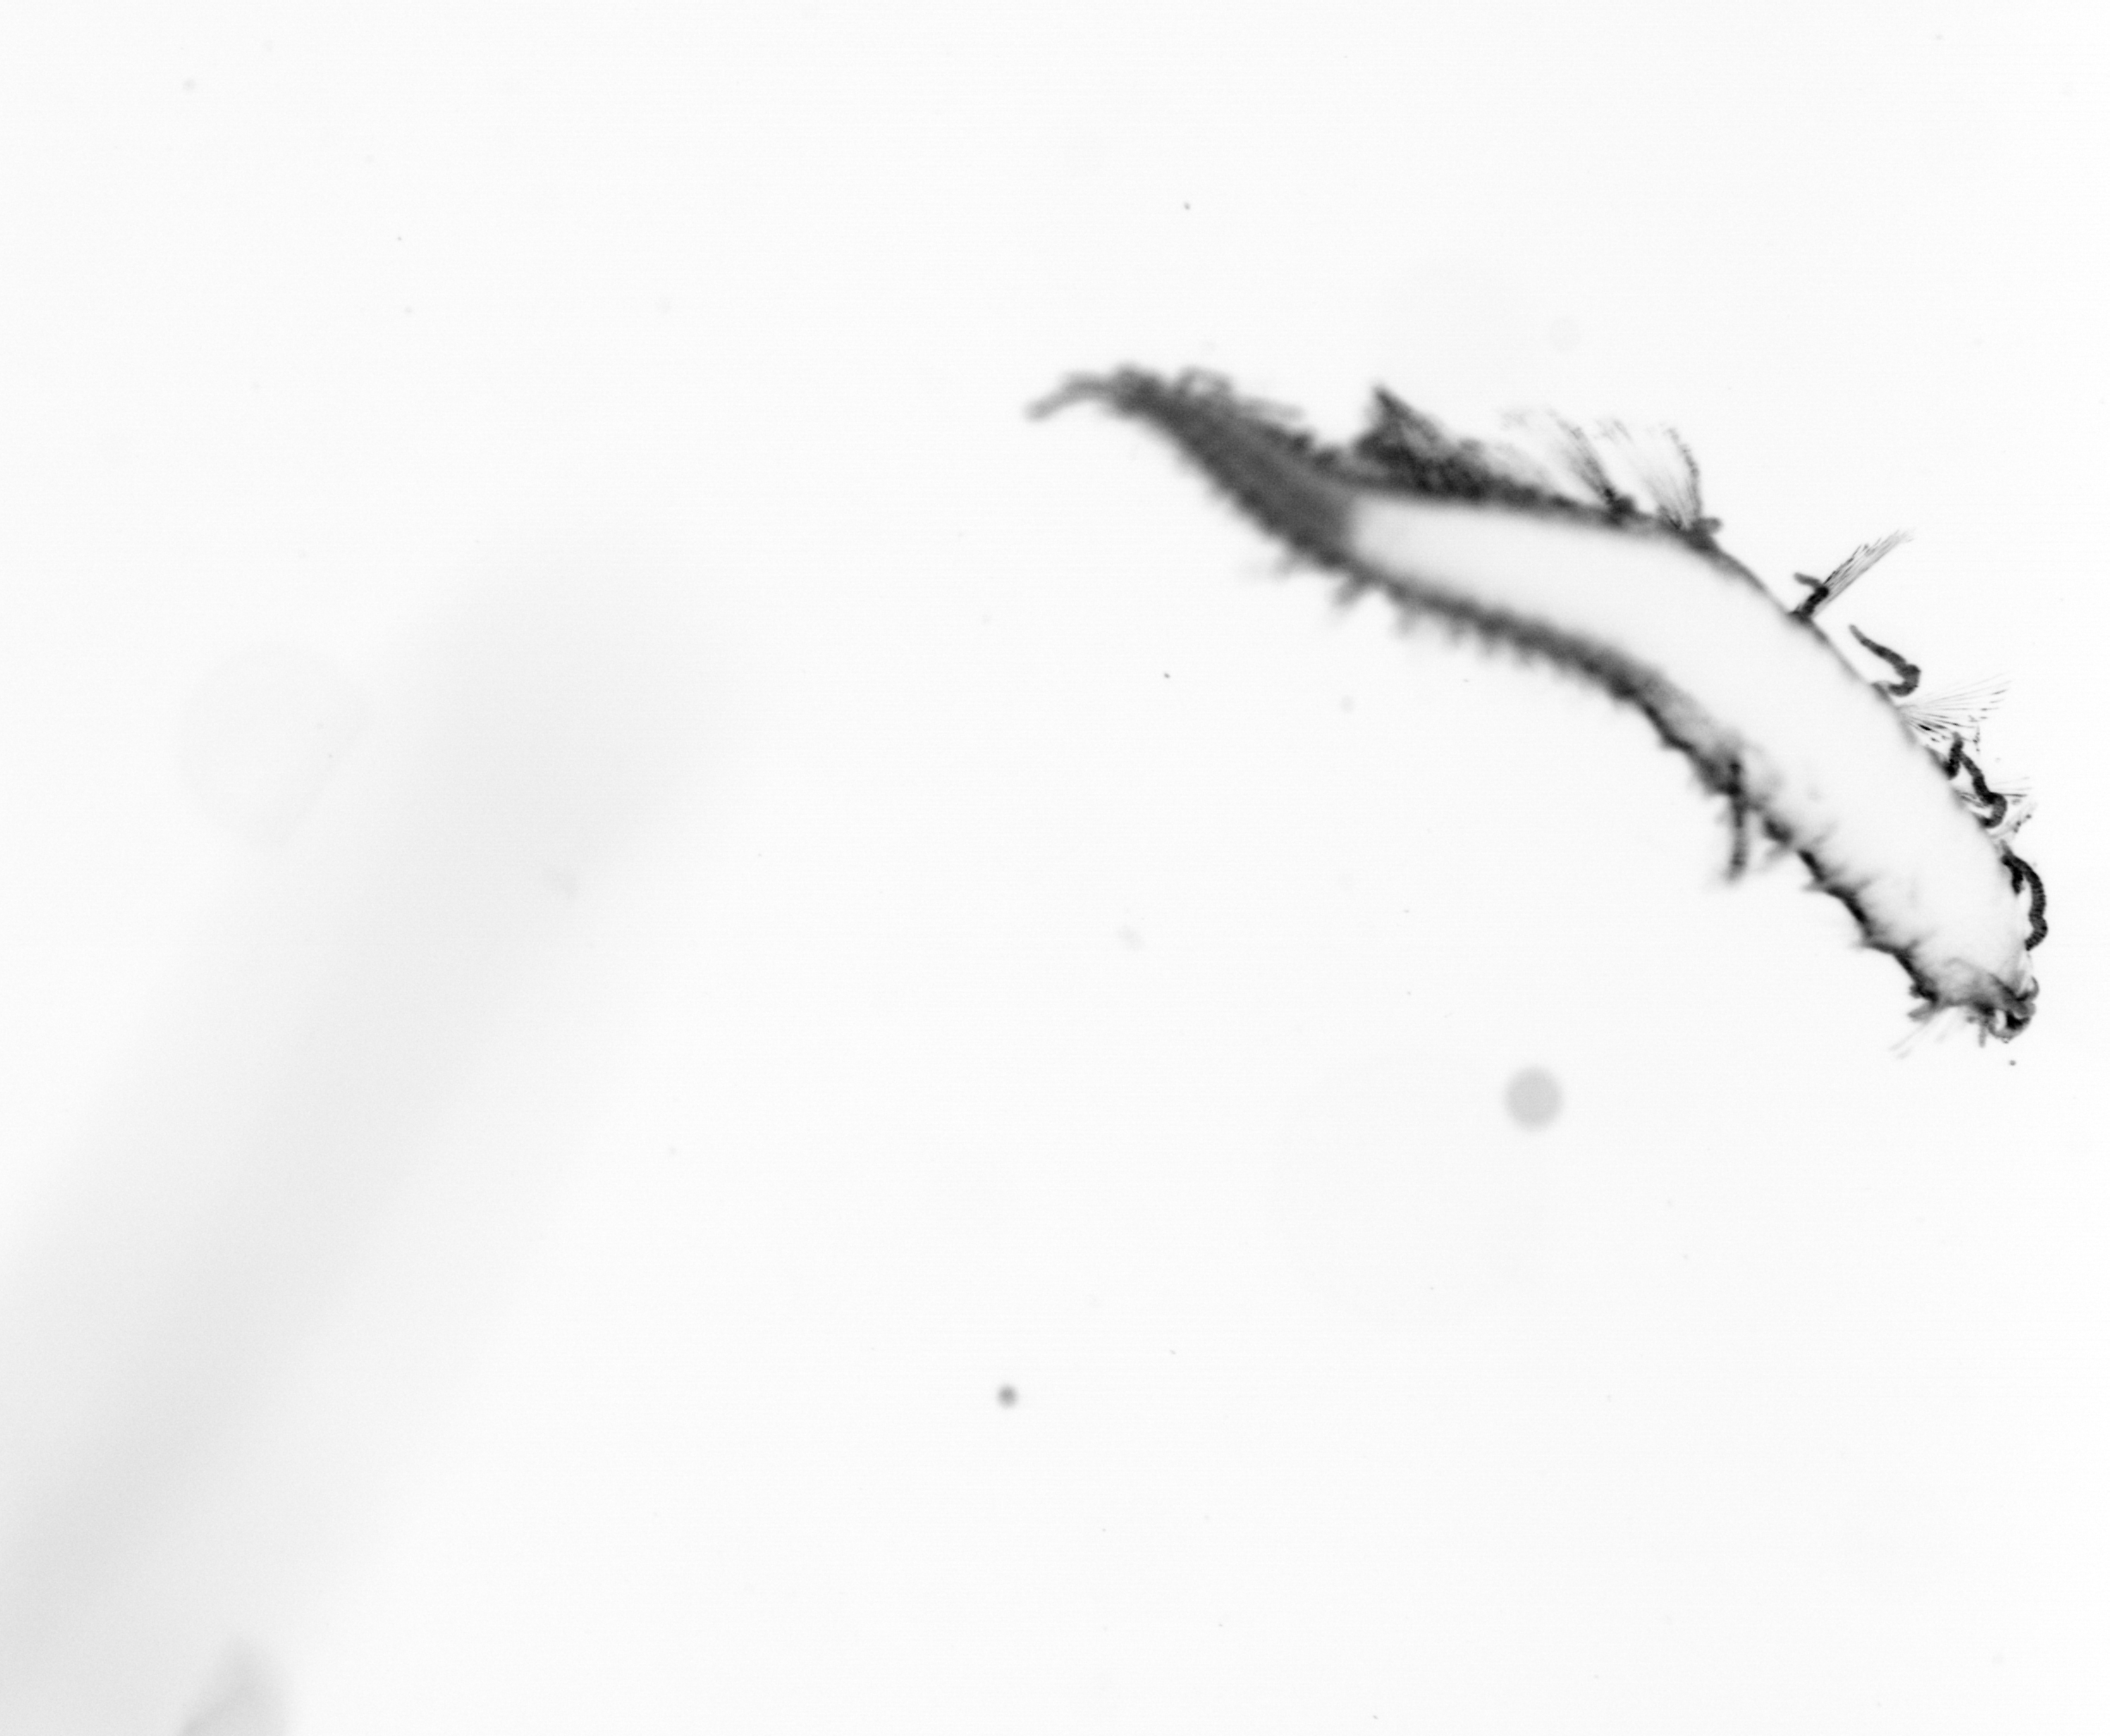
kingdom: Animalia
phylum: Annelida
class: Polychaeta
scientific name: Polychaeta
